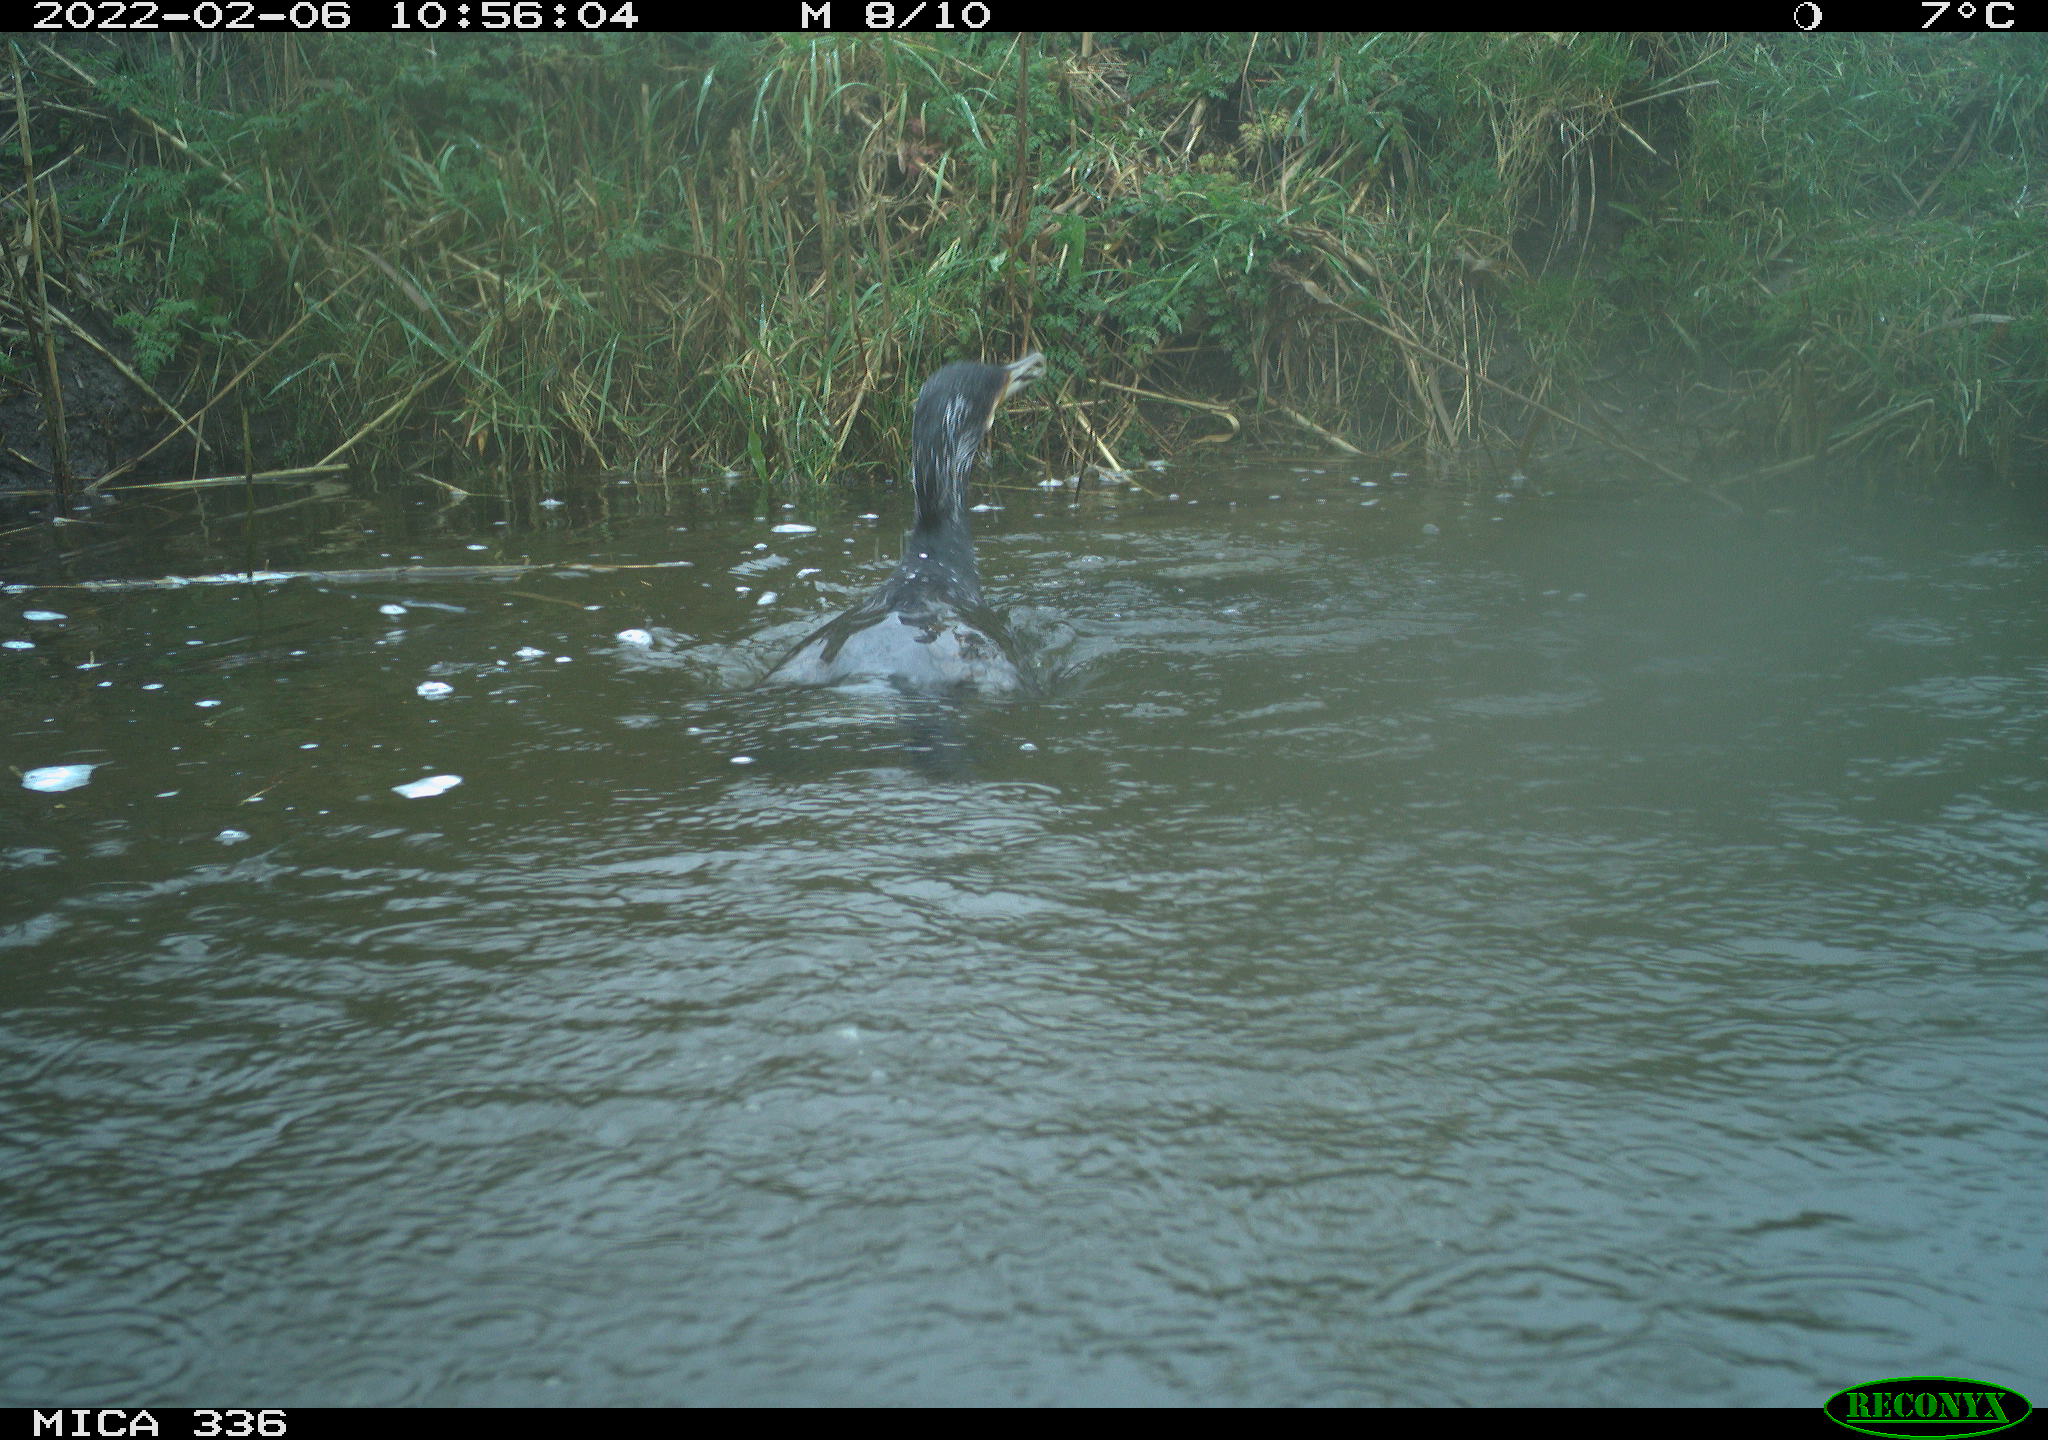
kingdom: Animalia
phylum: Chordata
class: Aves
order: Suliformes
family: Phalacrocoracidae
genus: Phalacrocorax
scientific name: Phalacrocorax carbo
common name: Great cormorant
